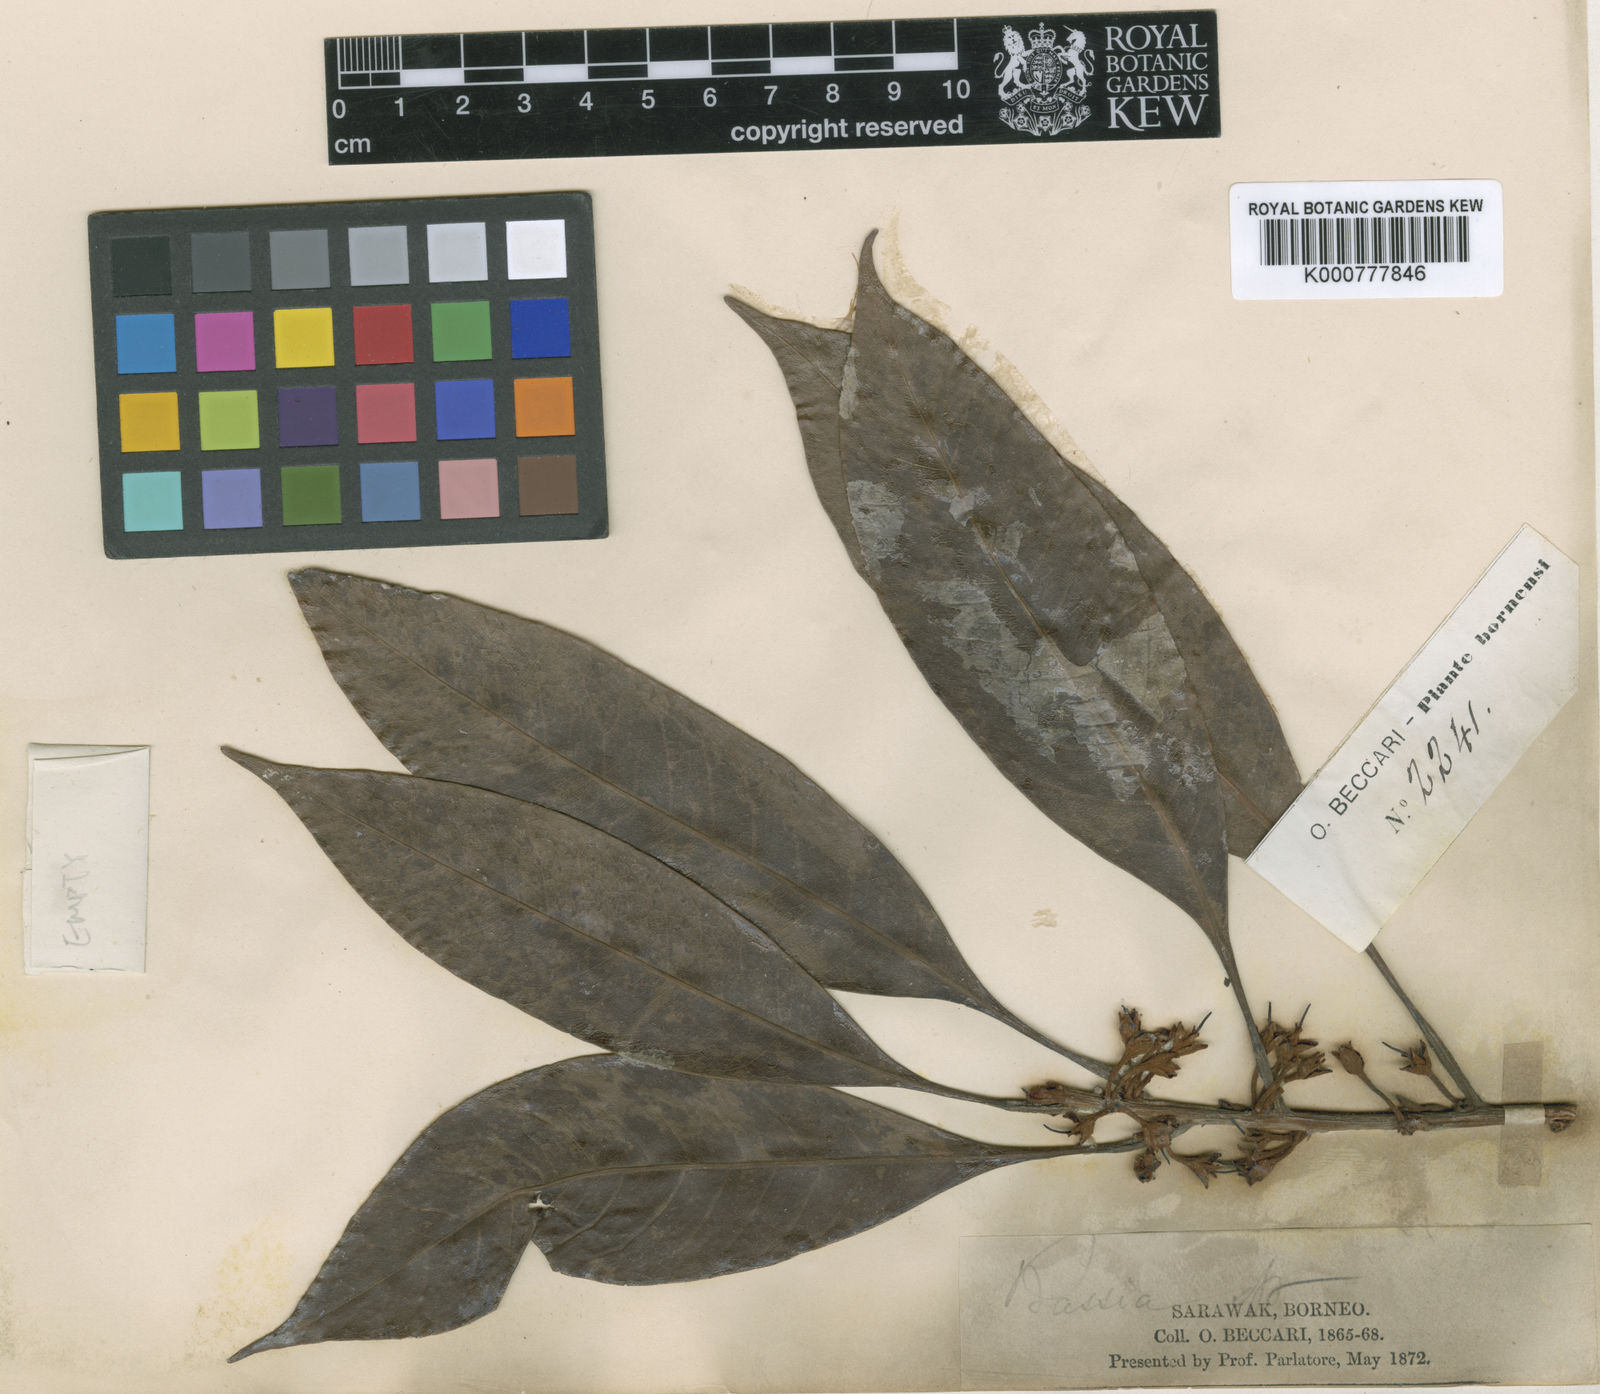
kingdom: Plantae
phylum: Tracheophyta
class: Magnoliopsida
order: Ericales
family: Sapotaceae
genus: Madhuca
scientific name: Madhuca engleri
